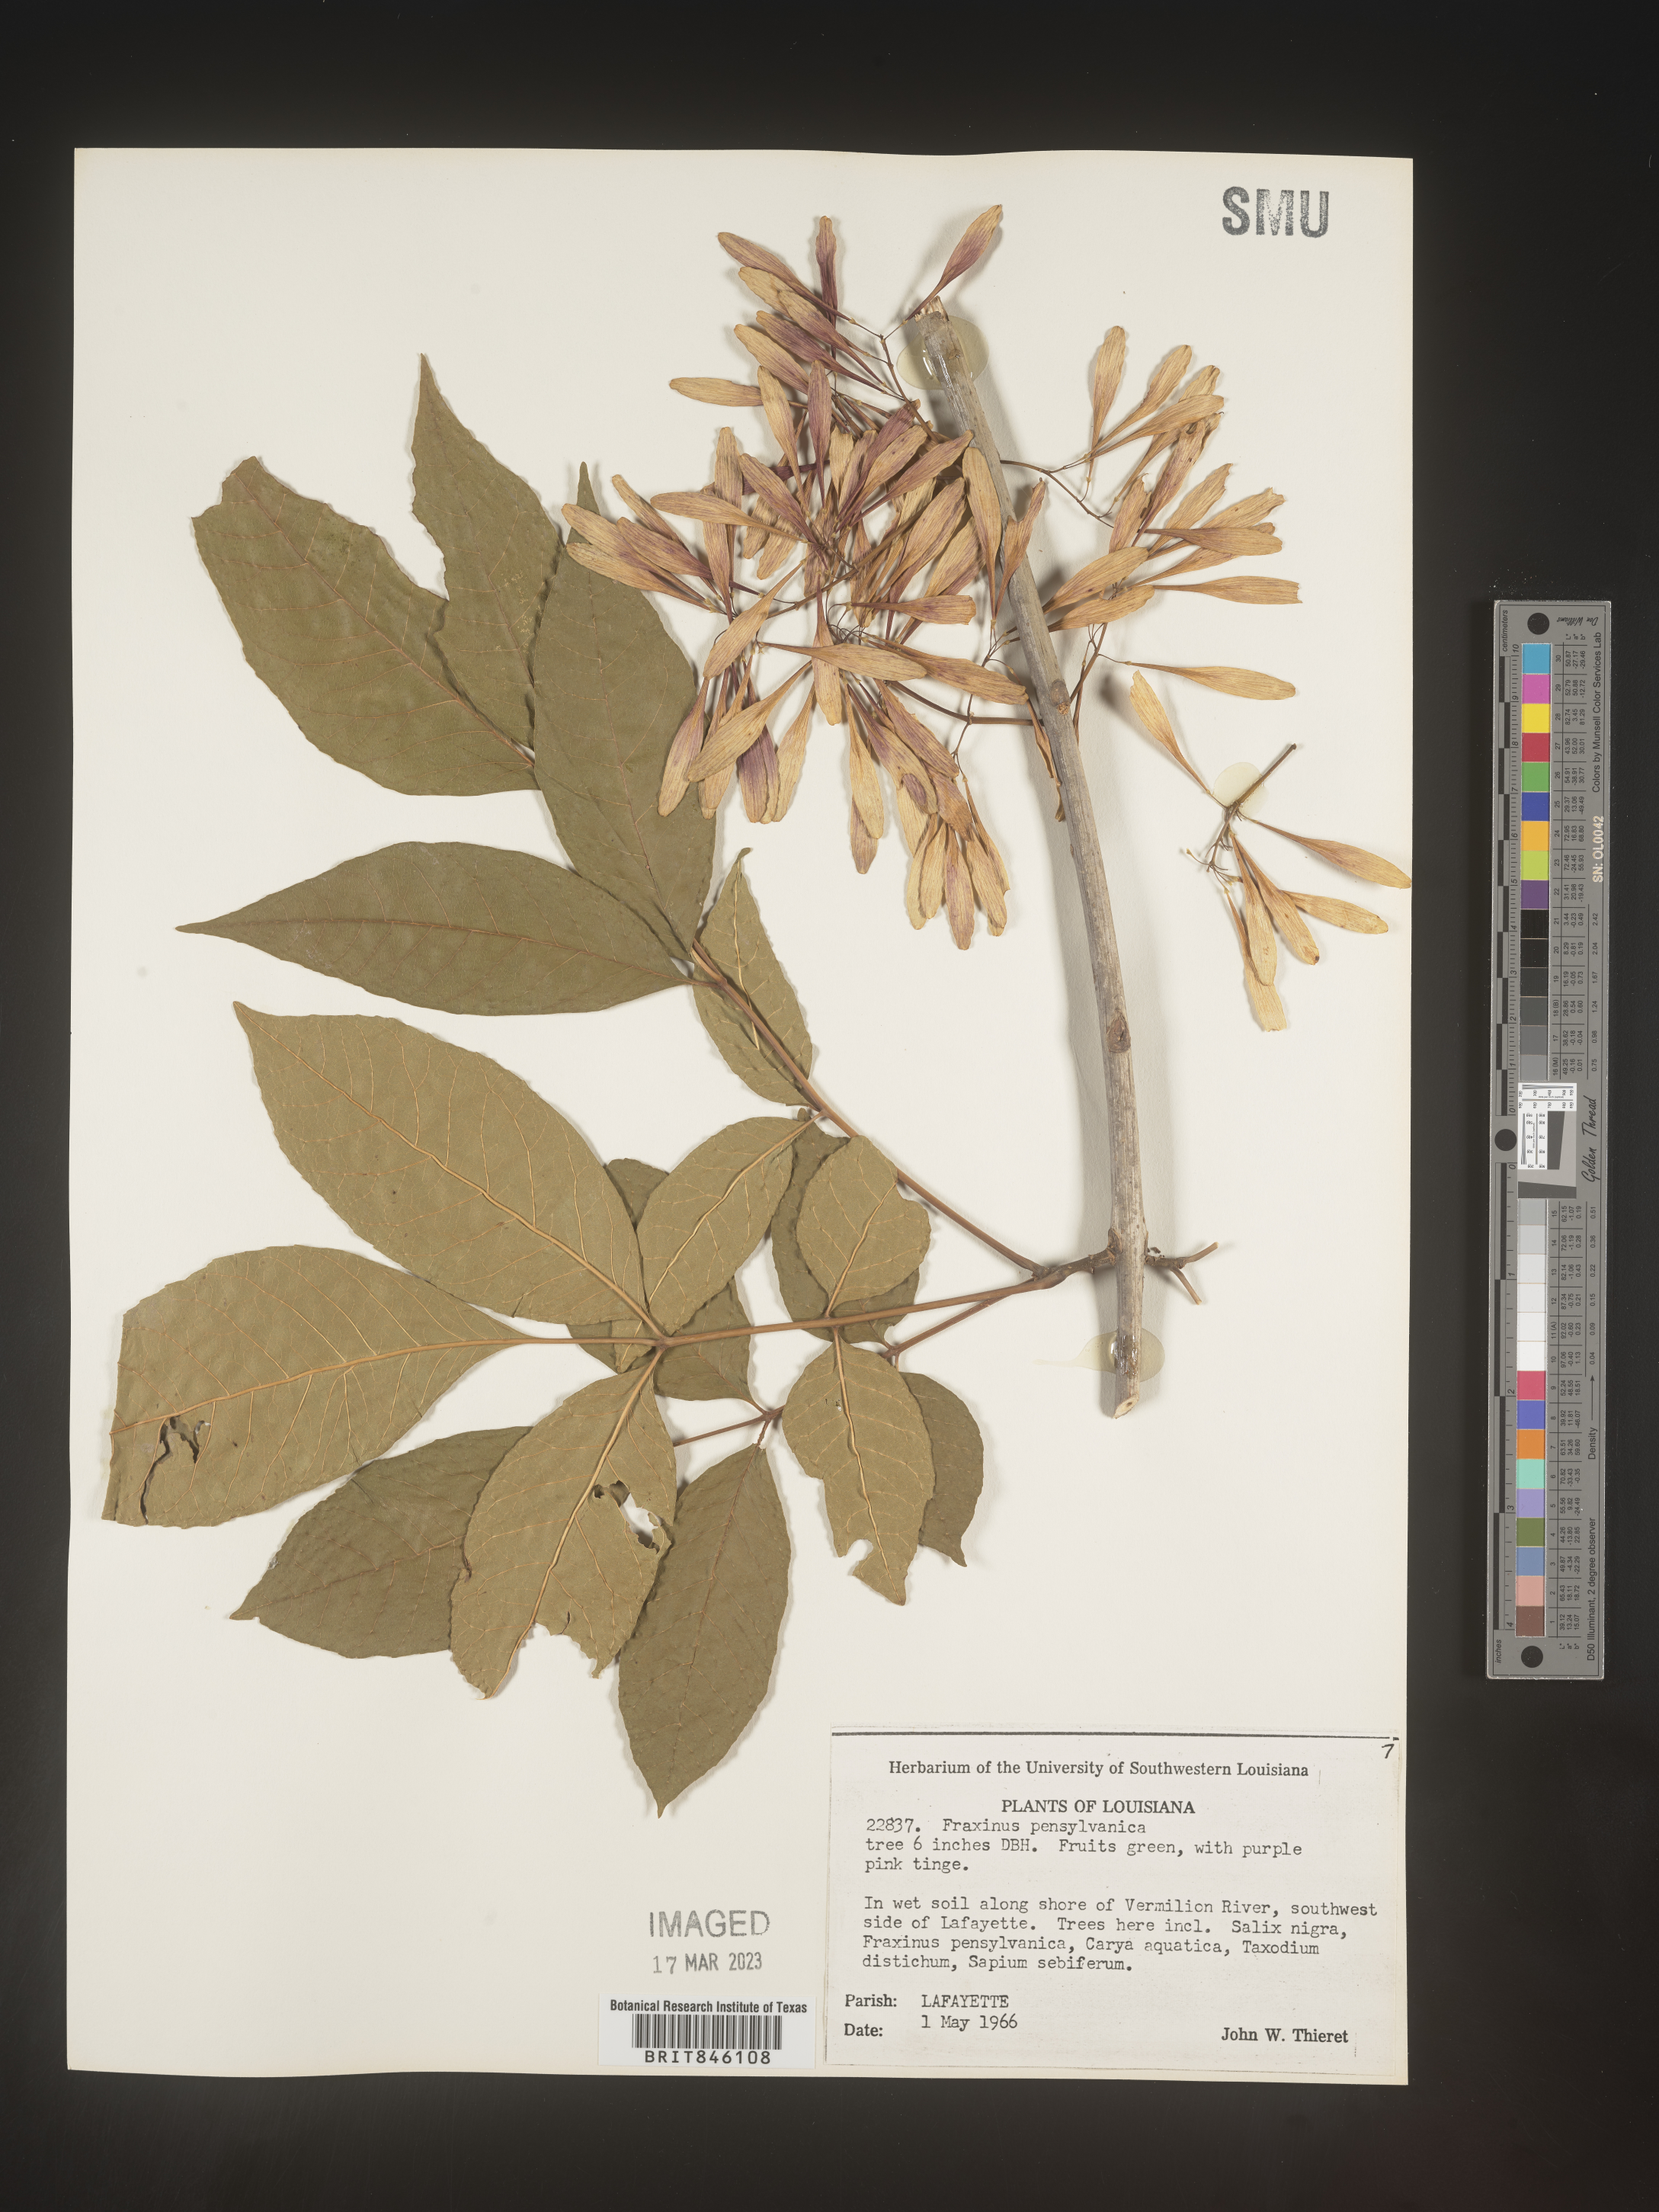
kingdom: Plantae
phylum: Tracheophyta
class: Magnoliopsida
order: Lamiales
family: Oleaceae
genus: Fraxinus
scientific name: Fraxinus pennsylvanica
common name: Green ash
